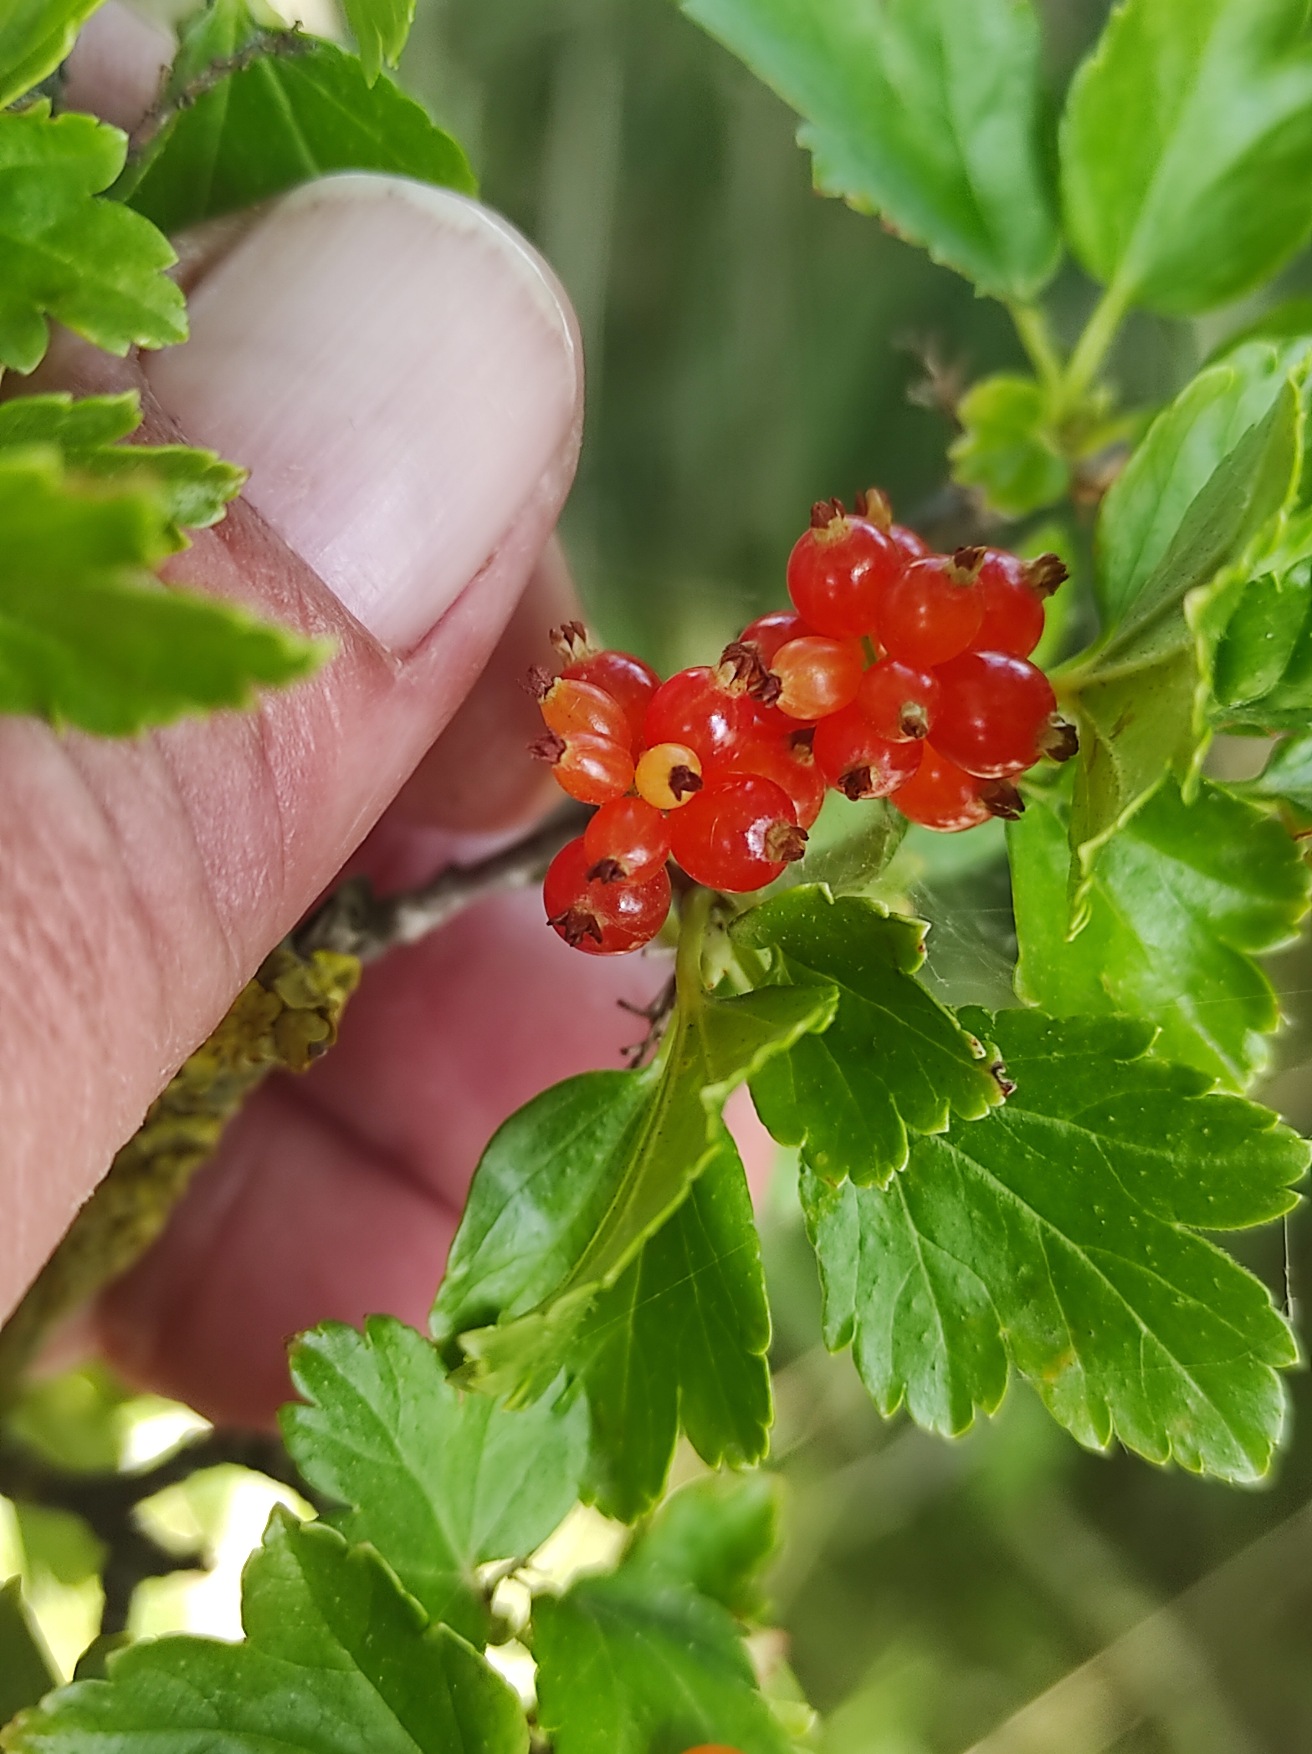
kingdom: Plantae
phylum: Tracheophyta
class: Magnoliopsida
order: Saxifragales
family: Grossulariaceae
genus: Ribes
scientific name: Ribes alpinum
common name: Fjeld-ribs
